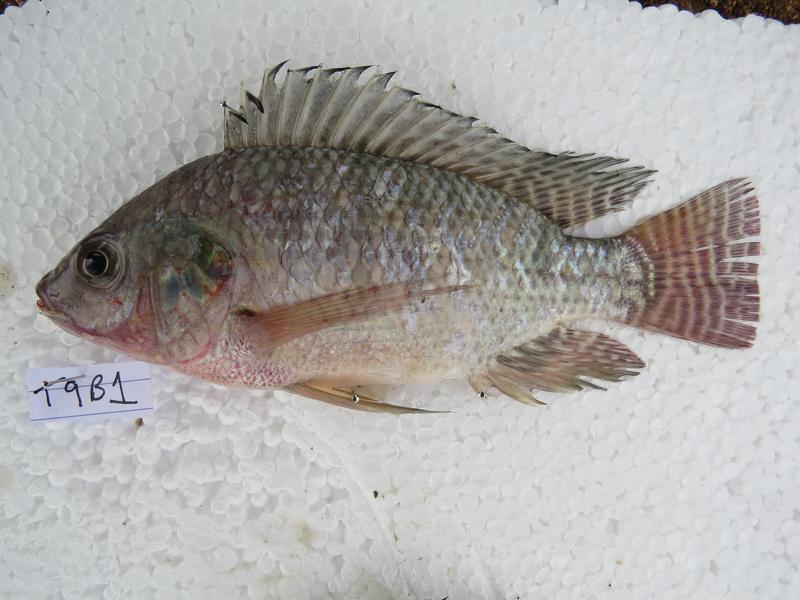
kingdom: Animalia
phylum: Chordata
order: Perciformes
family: Cichlidae
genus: Oreochromis
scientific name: Oreochromis niloticus
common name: Nile tilapia
